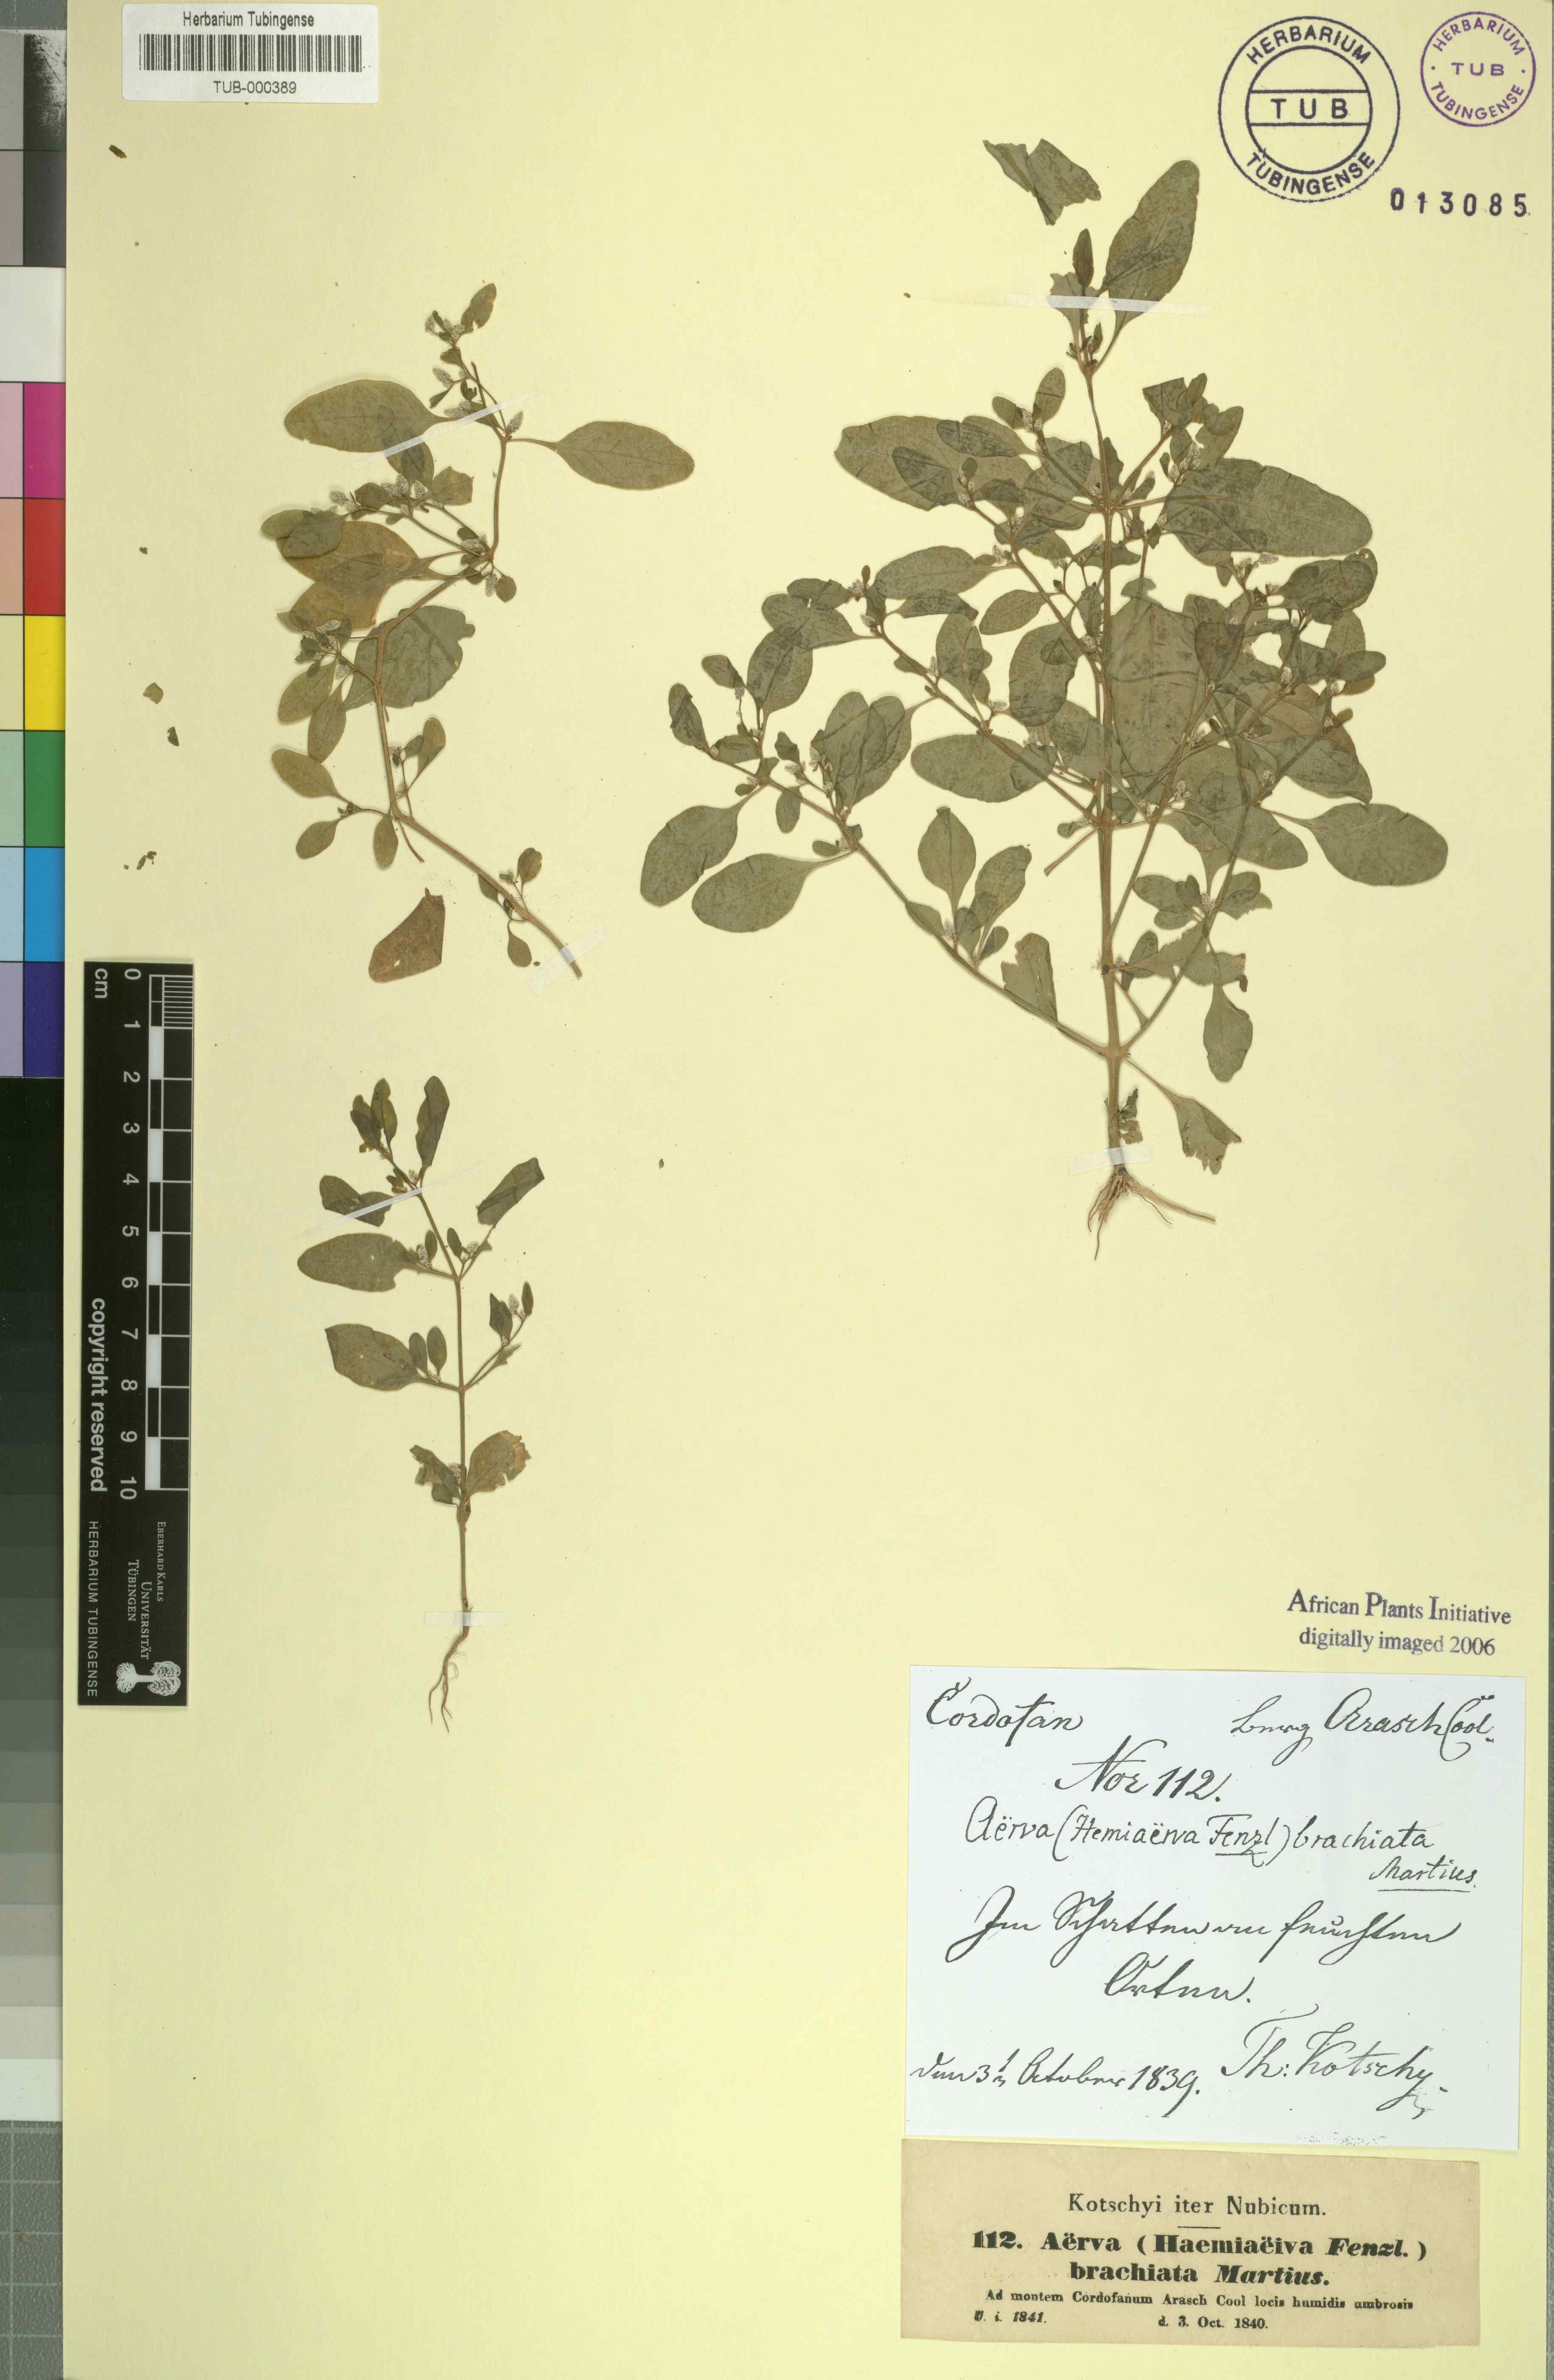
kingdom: Plantae
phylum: Tracheophyta
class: Magnoliopsida
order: Caryophyllales
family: Amaranthaceae
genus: Nothosaerva
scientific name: Nothosaerva brachiata
